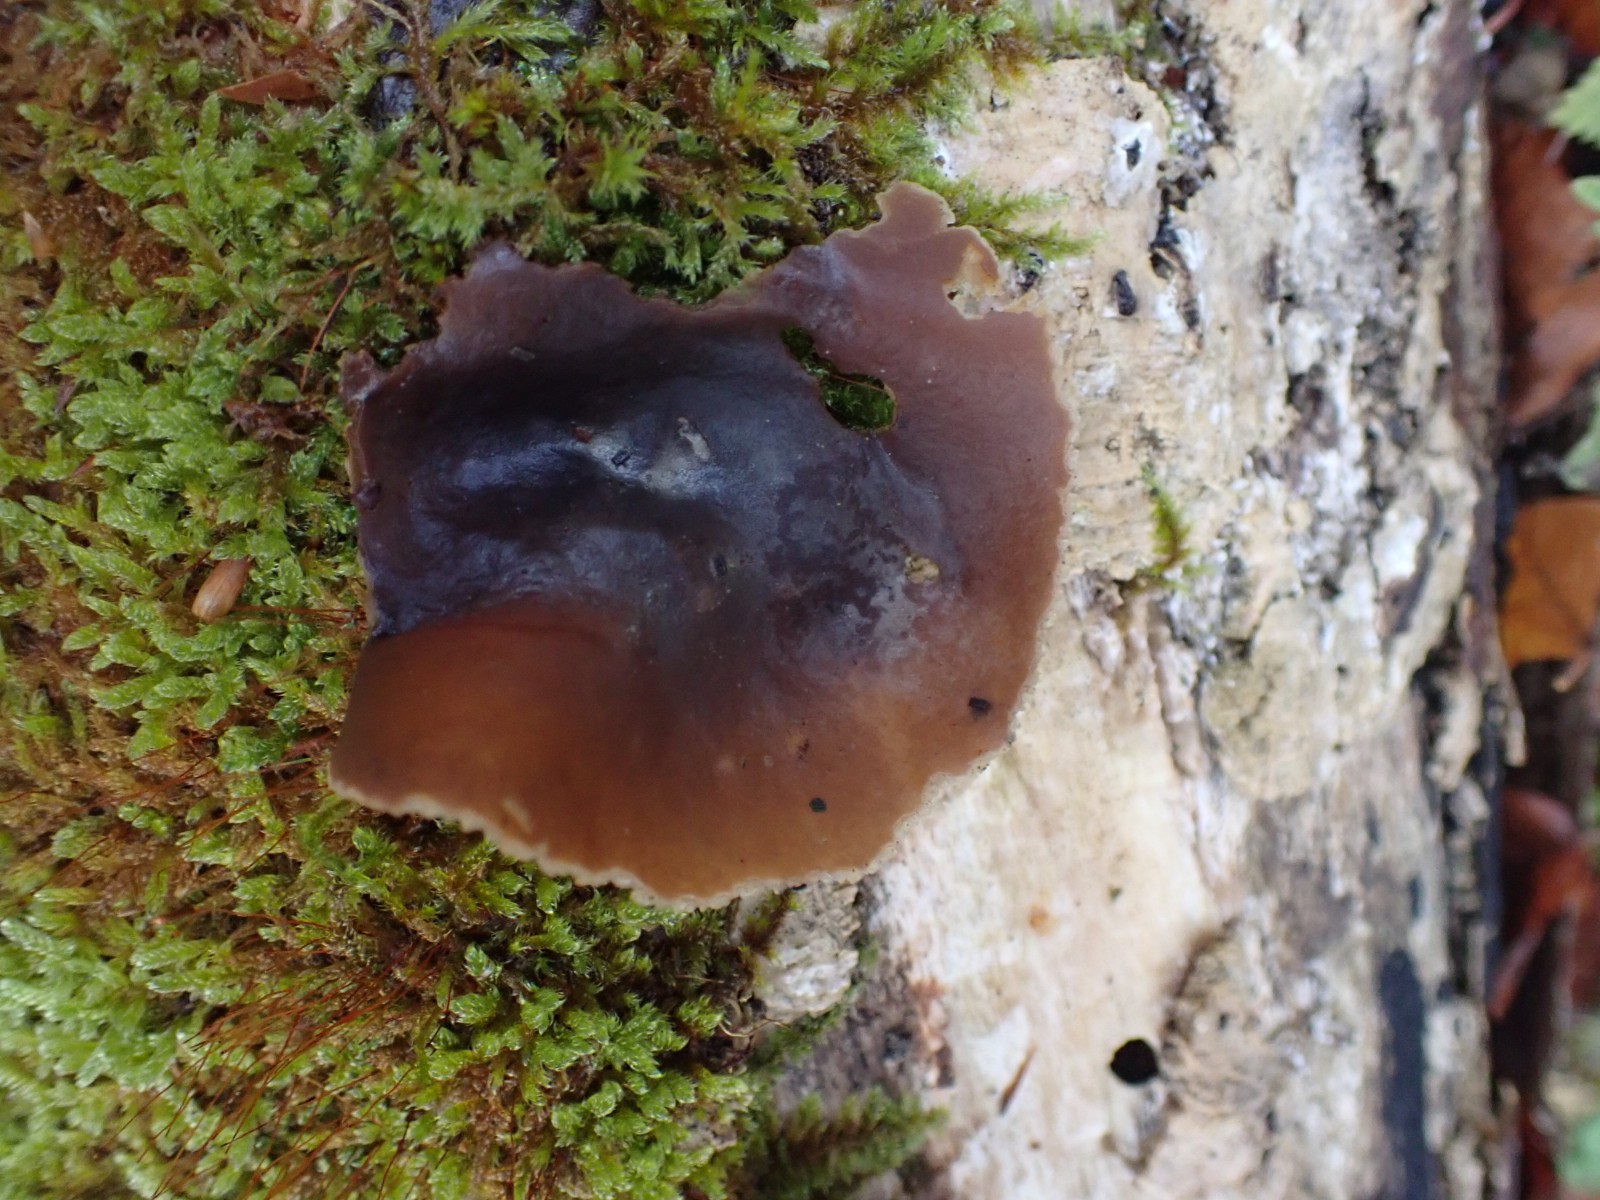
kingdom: Fungi
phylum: Ascomycota
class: Pezizomycetes
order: Pezizales
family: Pezizaceae
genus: Peziza
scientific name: Peziza varia
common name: Ved-bægersvamp
